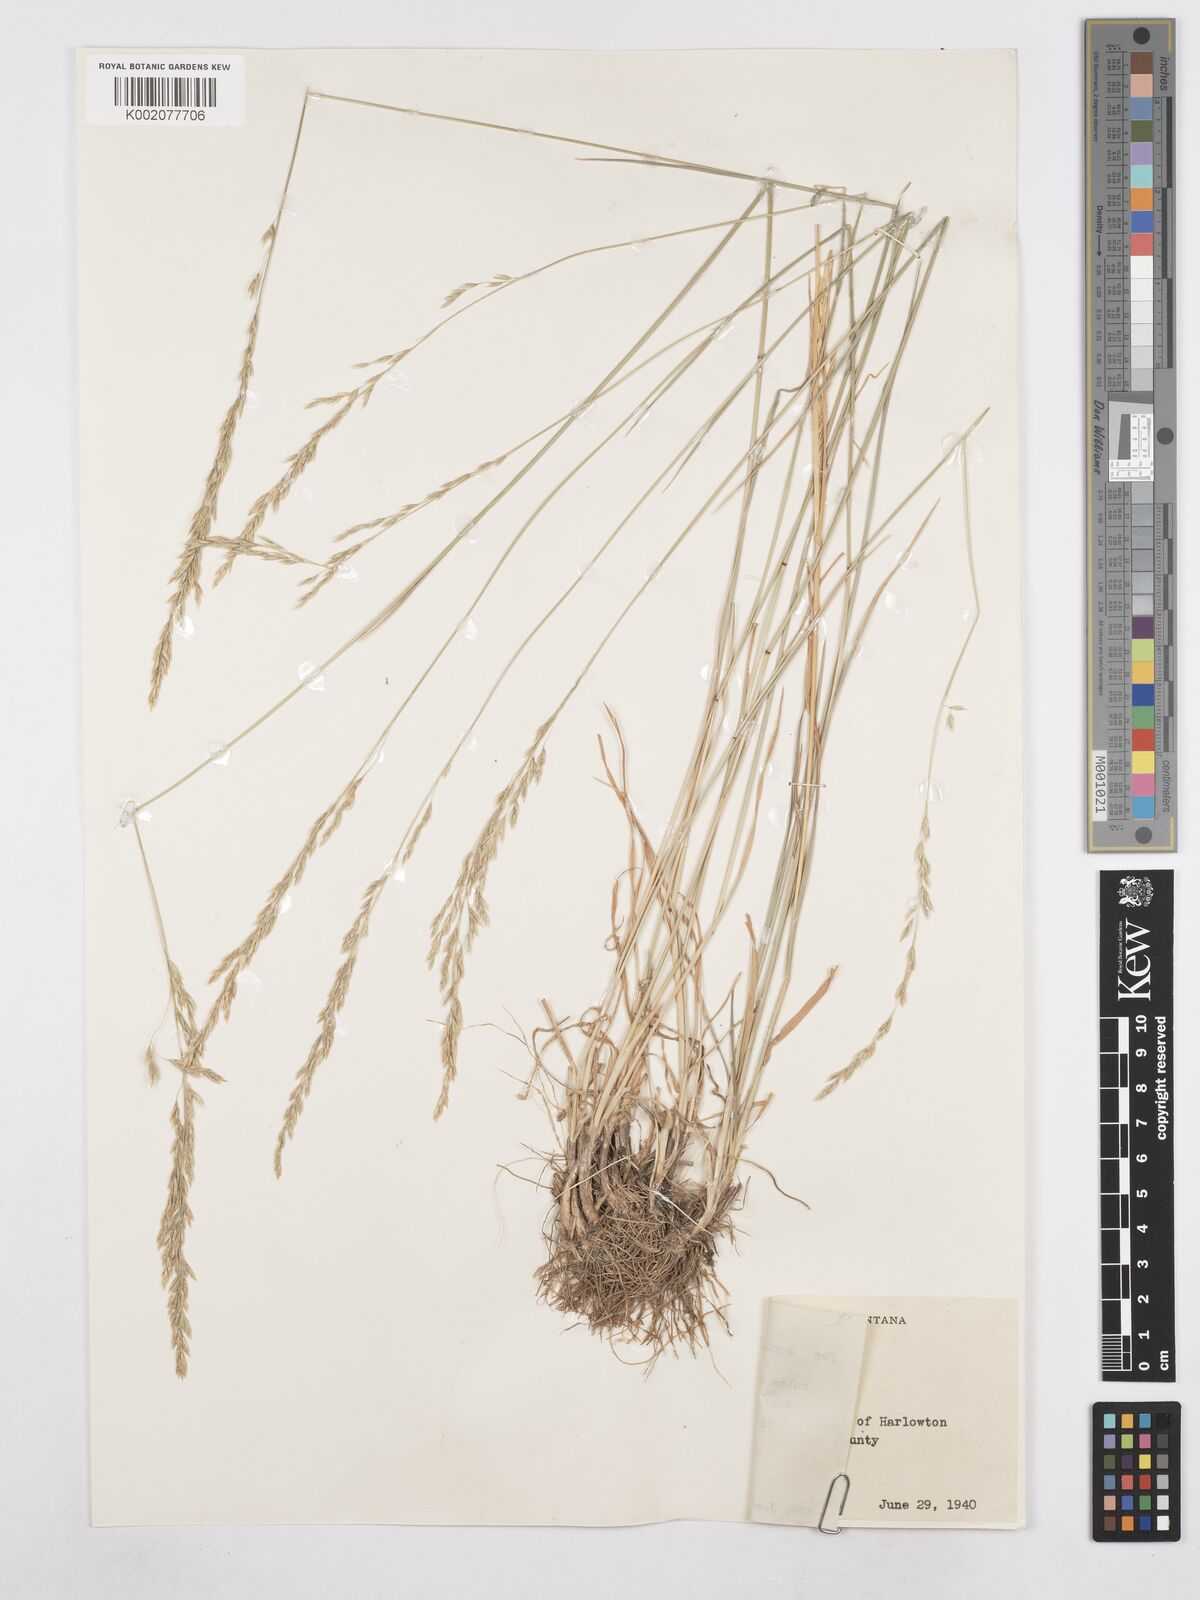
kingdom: Plantae
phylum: Tracheophyta
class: Liliopsida
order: Poales
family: Poaceae
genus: Poa
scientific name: Poa secunda
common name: Sandberg bluegrass
